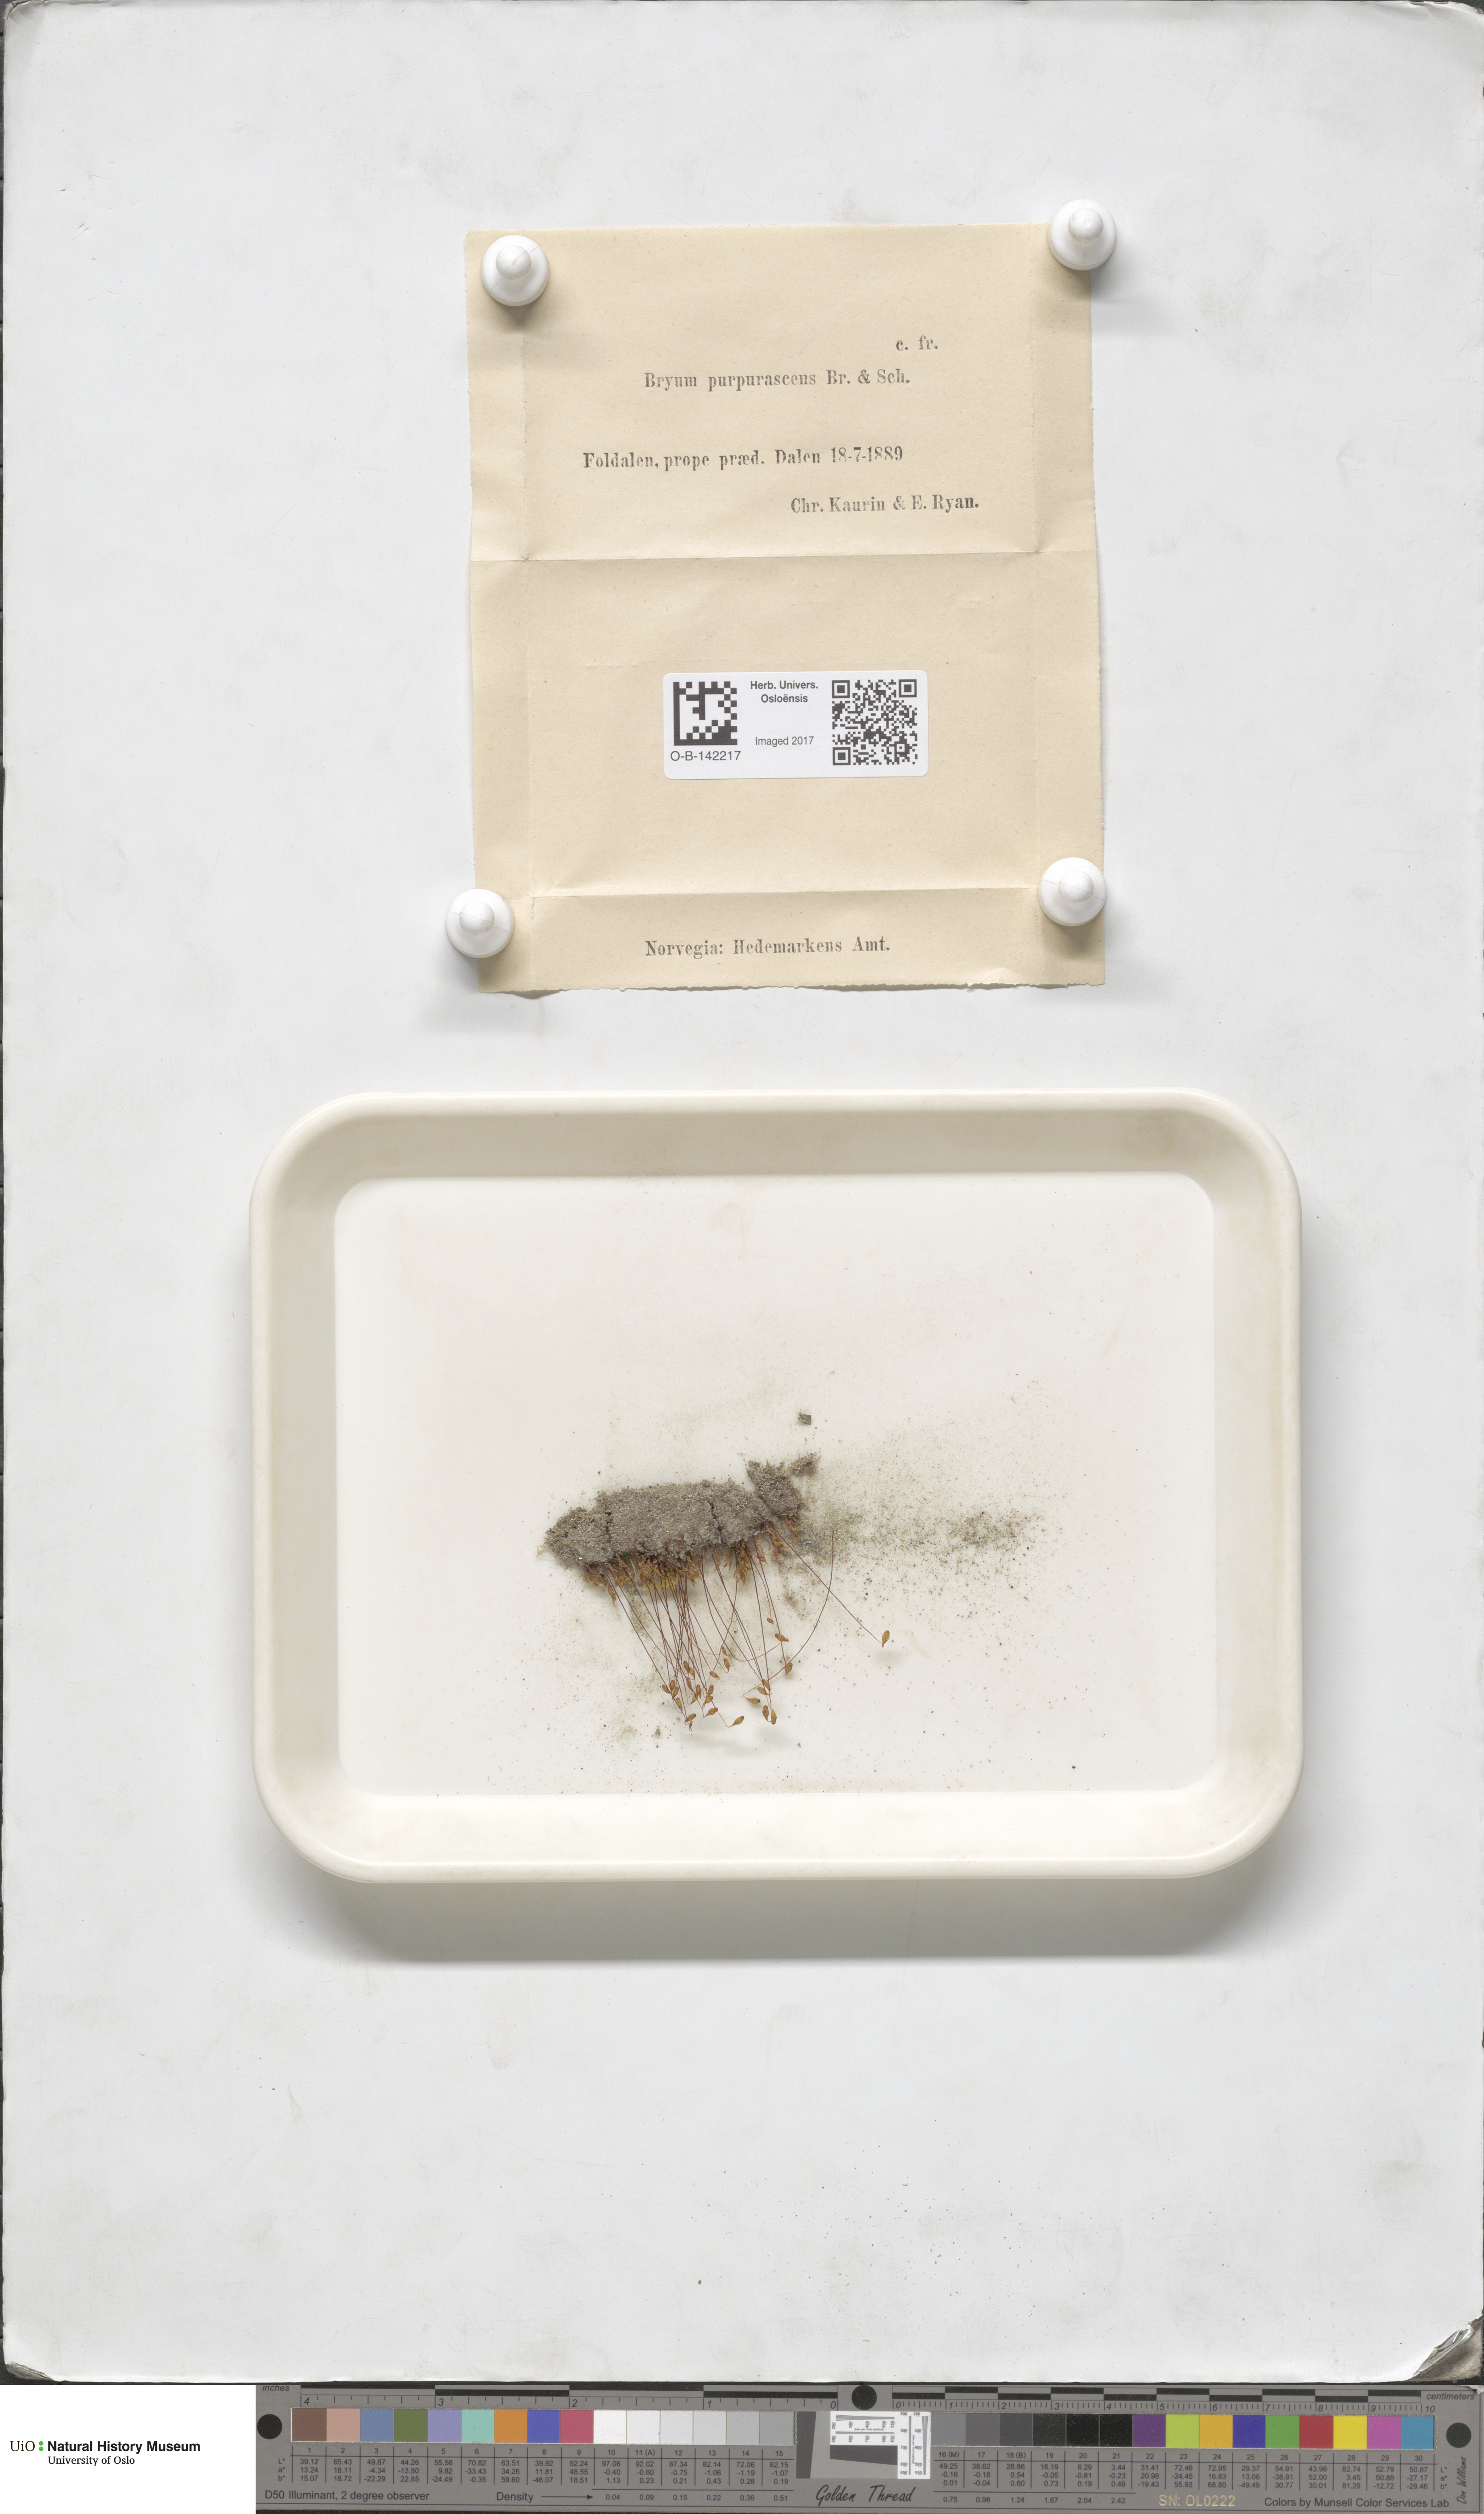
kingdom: Plantae
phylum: Bryophyta
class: Bryopsida
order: Bryales
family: Bryaceae
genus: Ptychostomum
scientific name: Ptychostomum arcticum
